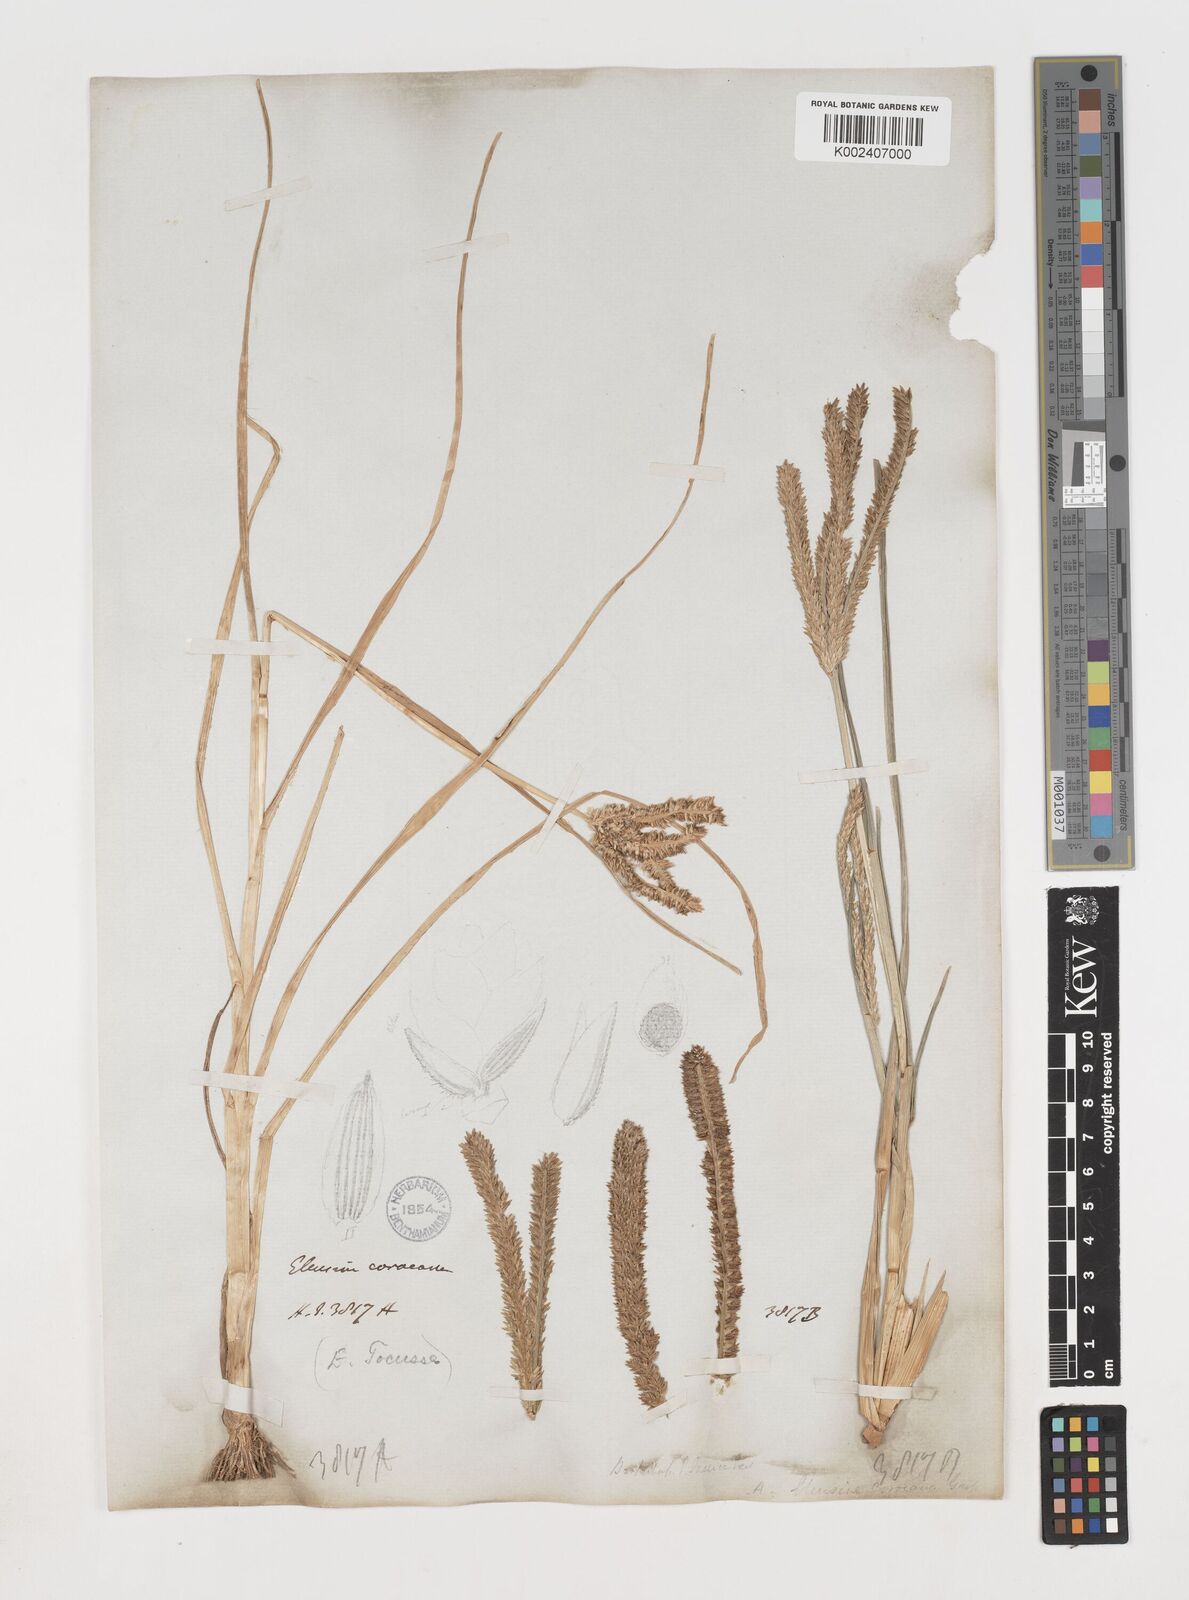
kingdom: Plantae
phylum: Tracheophyta
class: Liliopsida
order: Poales
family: Poaceae
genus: Eleusine
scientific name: Eleusine coracana
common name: Finger millet
